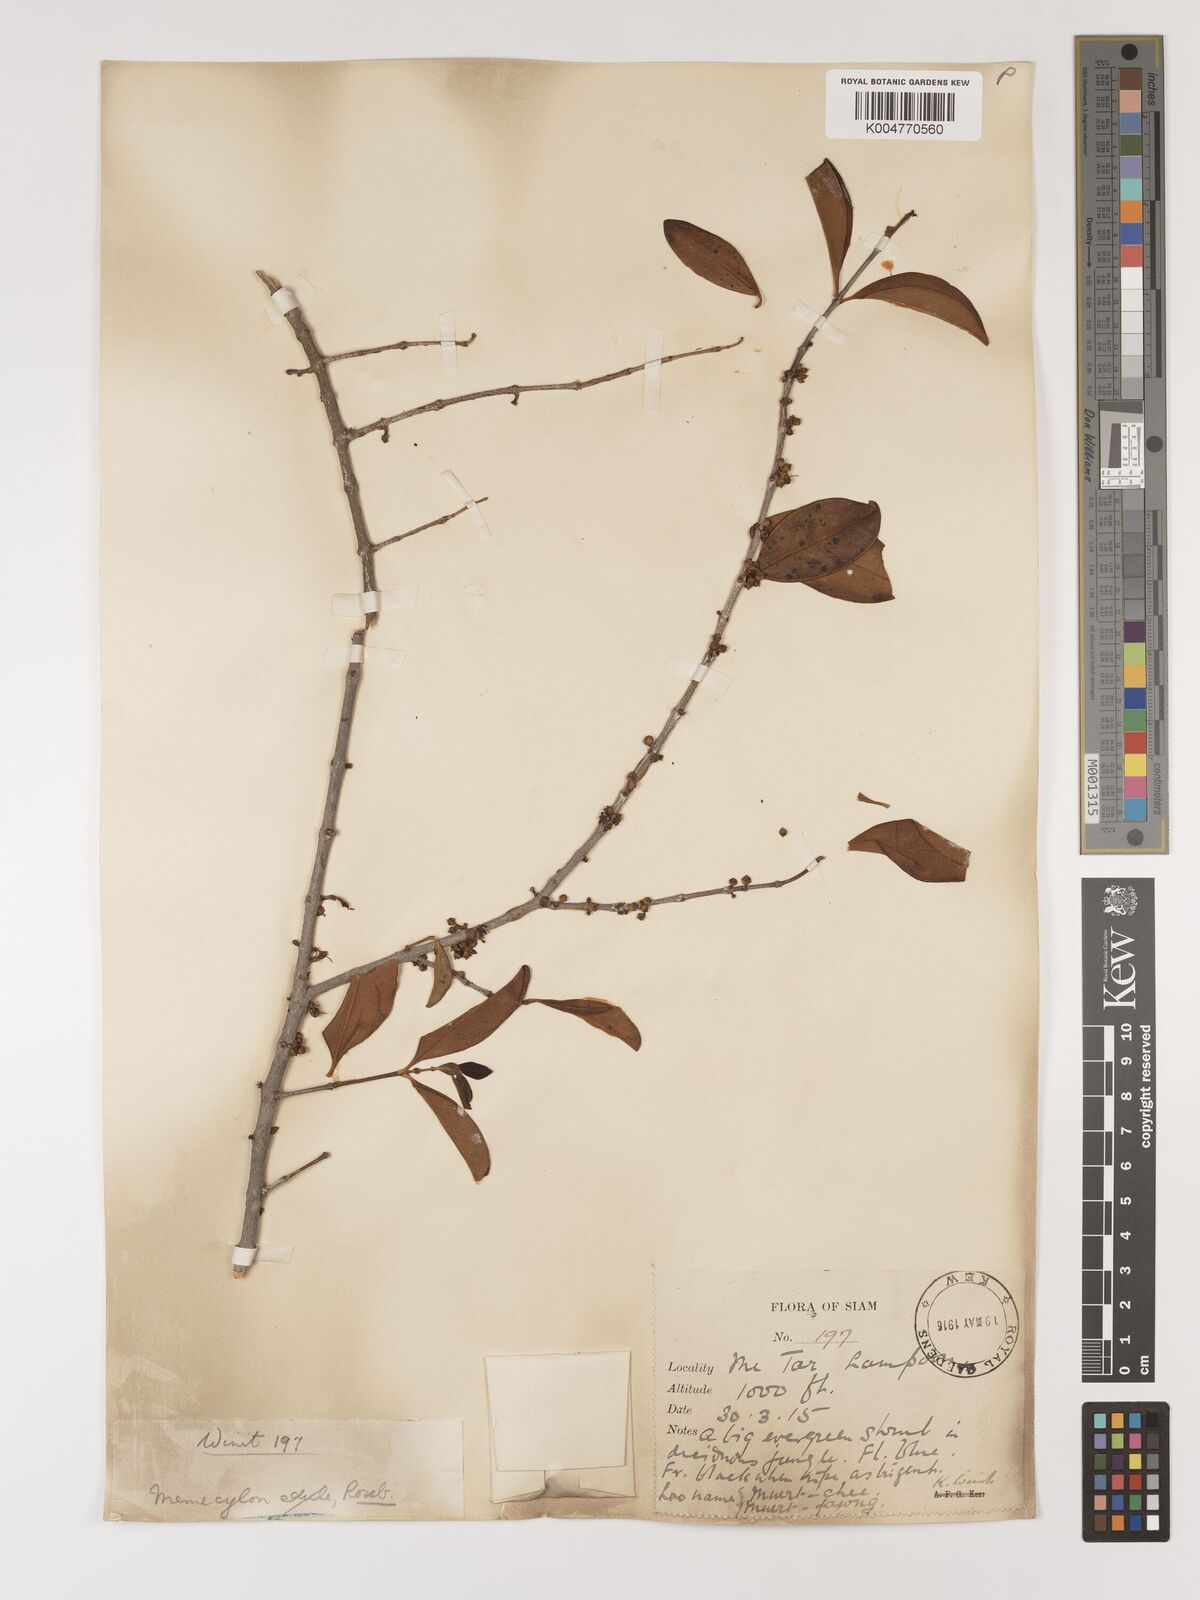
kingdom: Plantae
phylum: Tracheophyta
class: Magnoliopsida
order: Myrtales
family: Melastomataceae
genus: Memecylon
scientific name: Memecylon scutellatum
